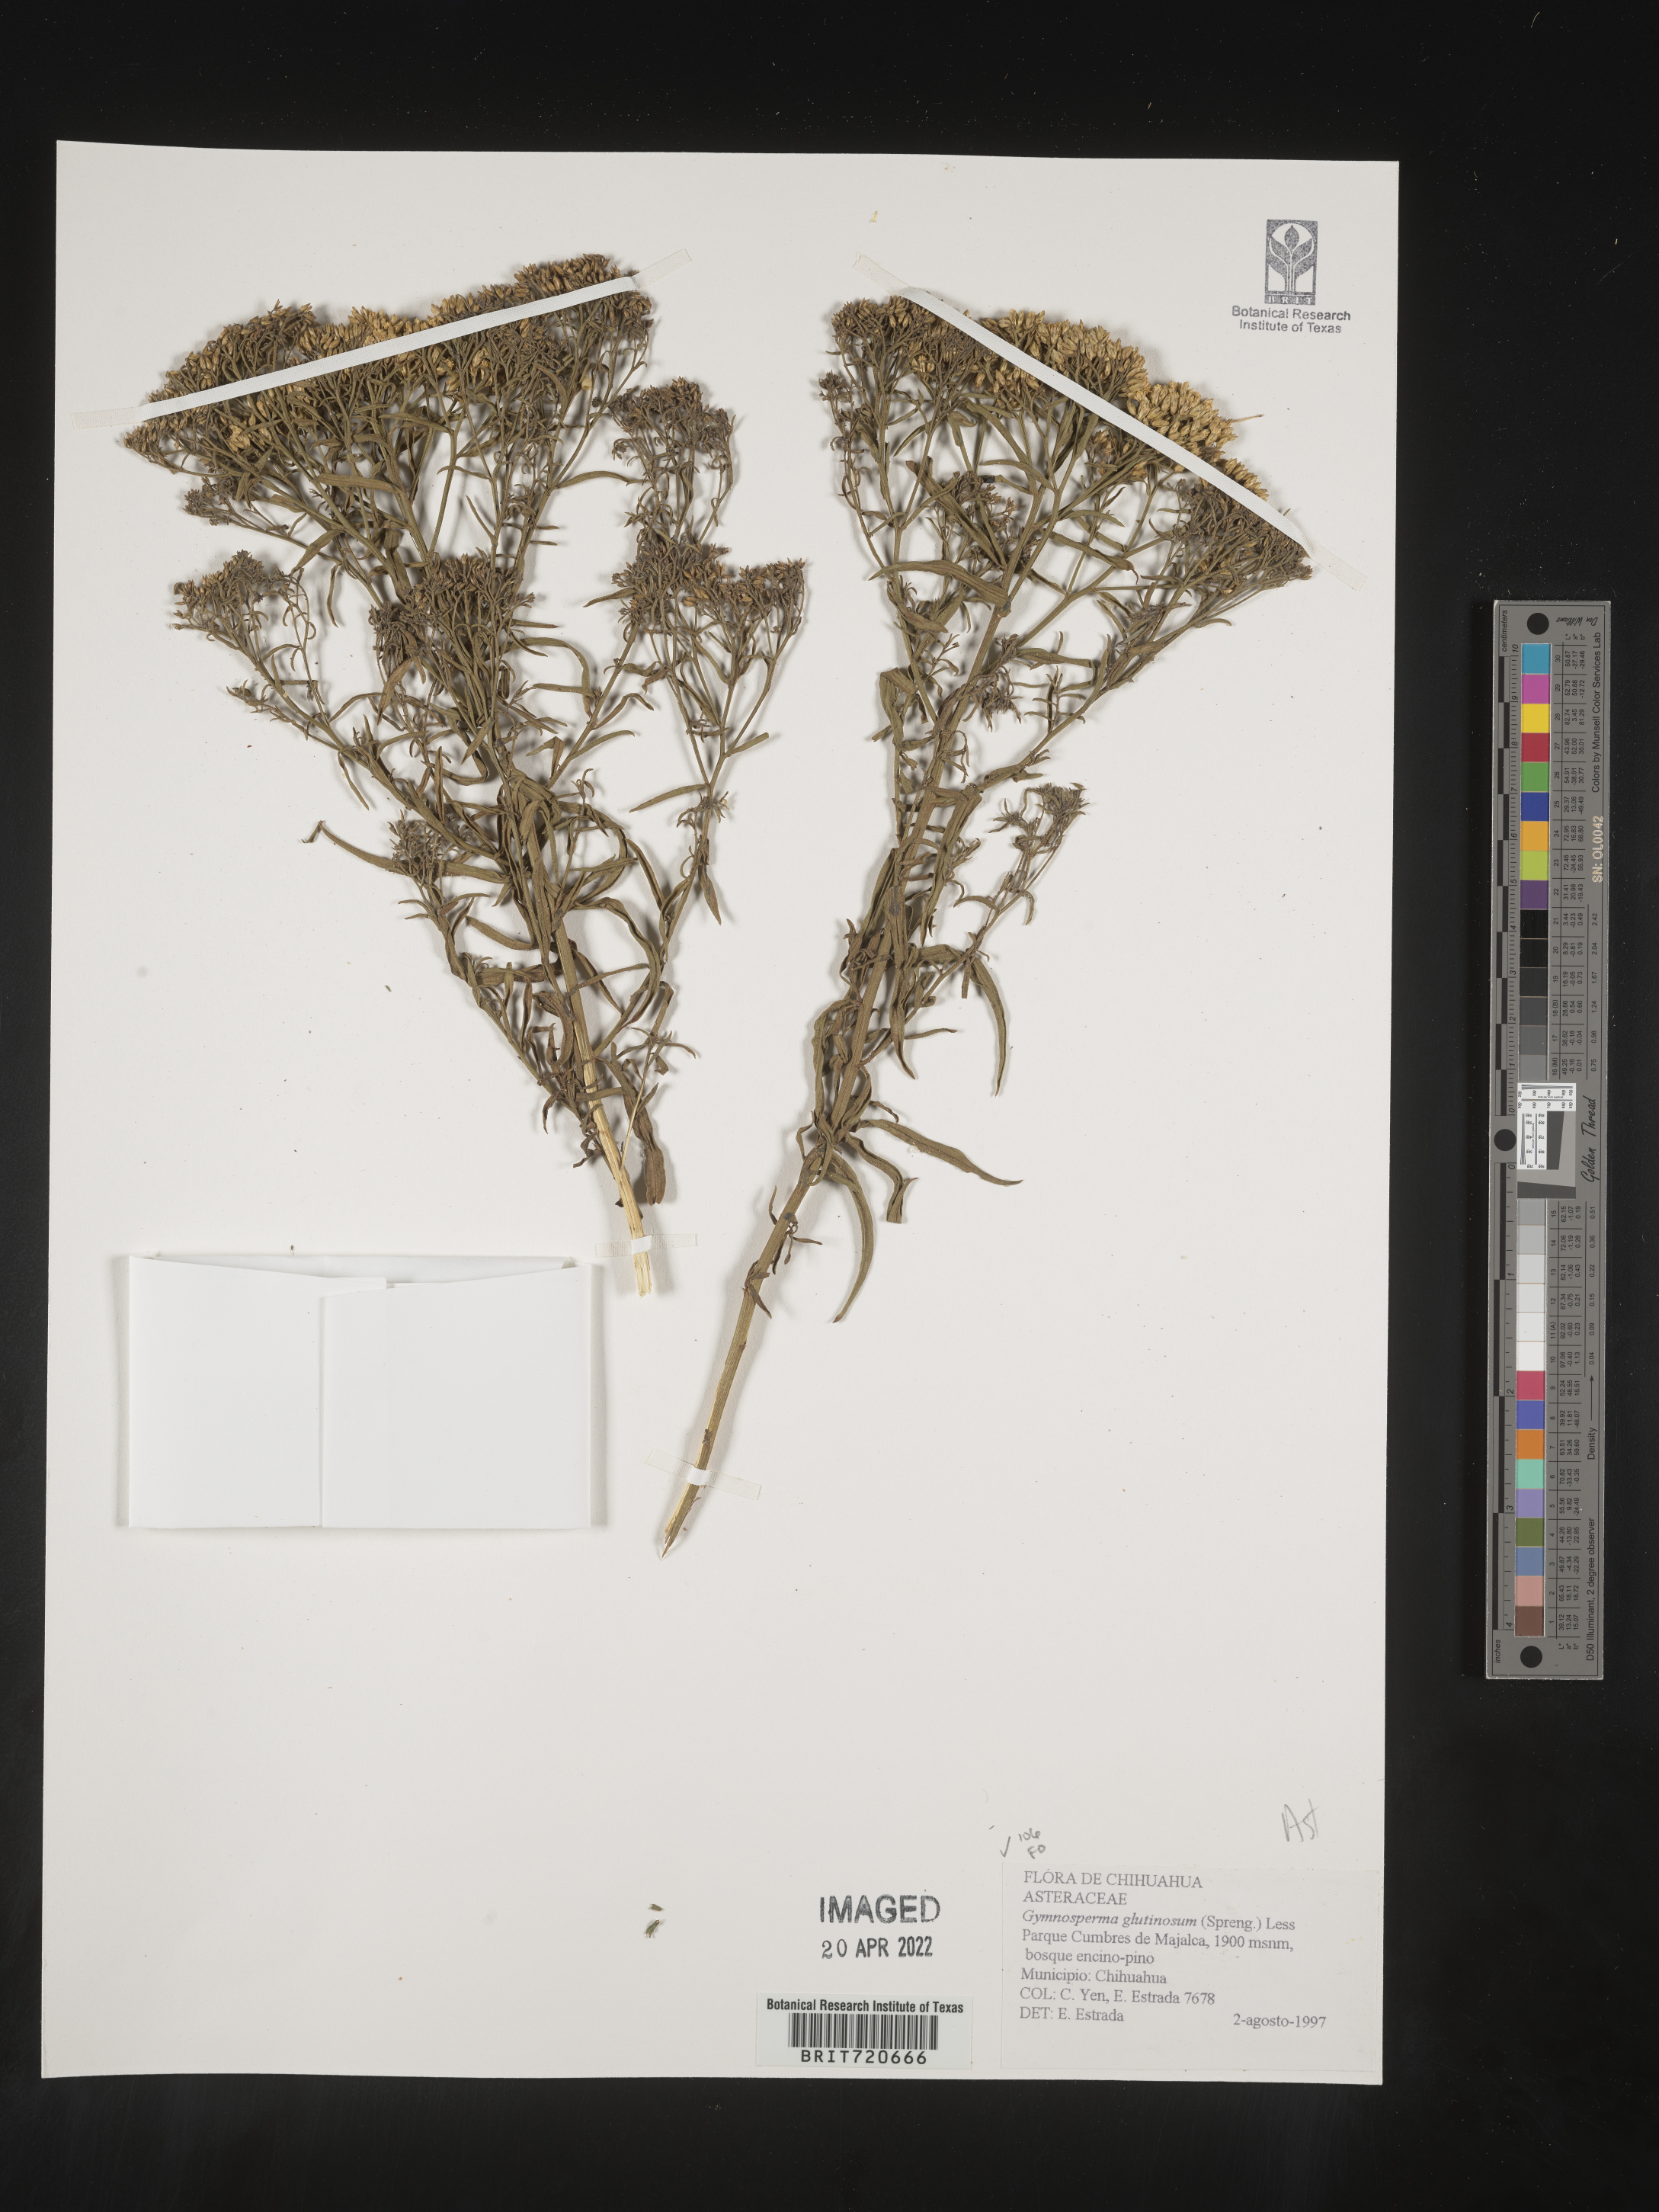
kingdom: Plantae
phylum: Tracheophyta
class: Magnoliopsida
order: Asterales
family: Asteraceae
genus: Gymnosperma
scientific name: Gymnosperma glutinosum
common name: Gumhead
